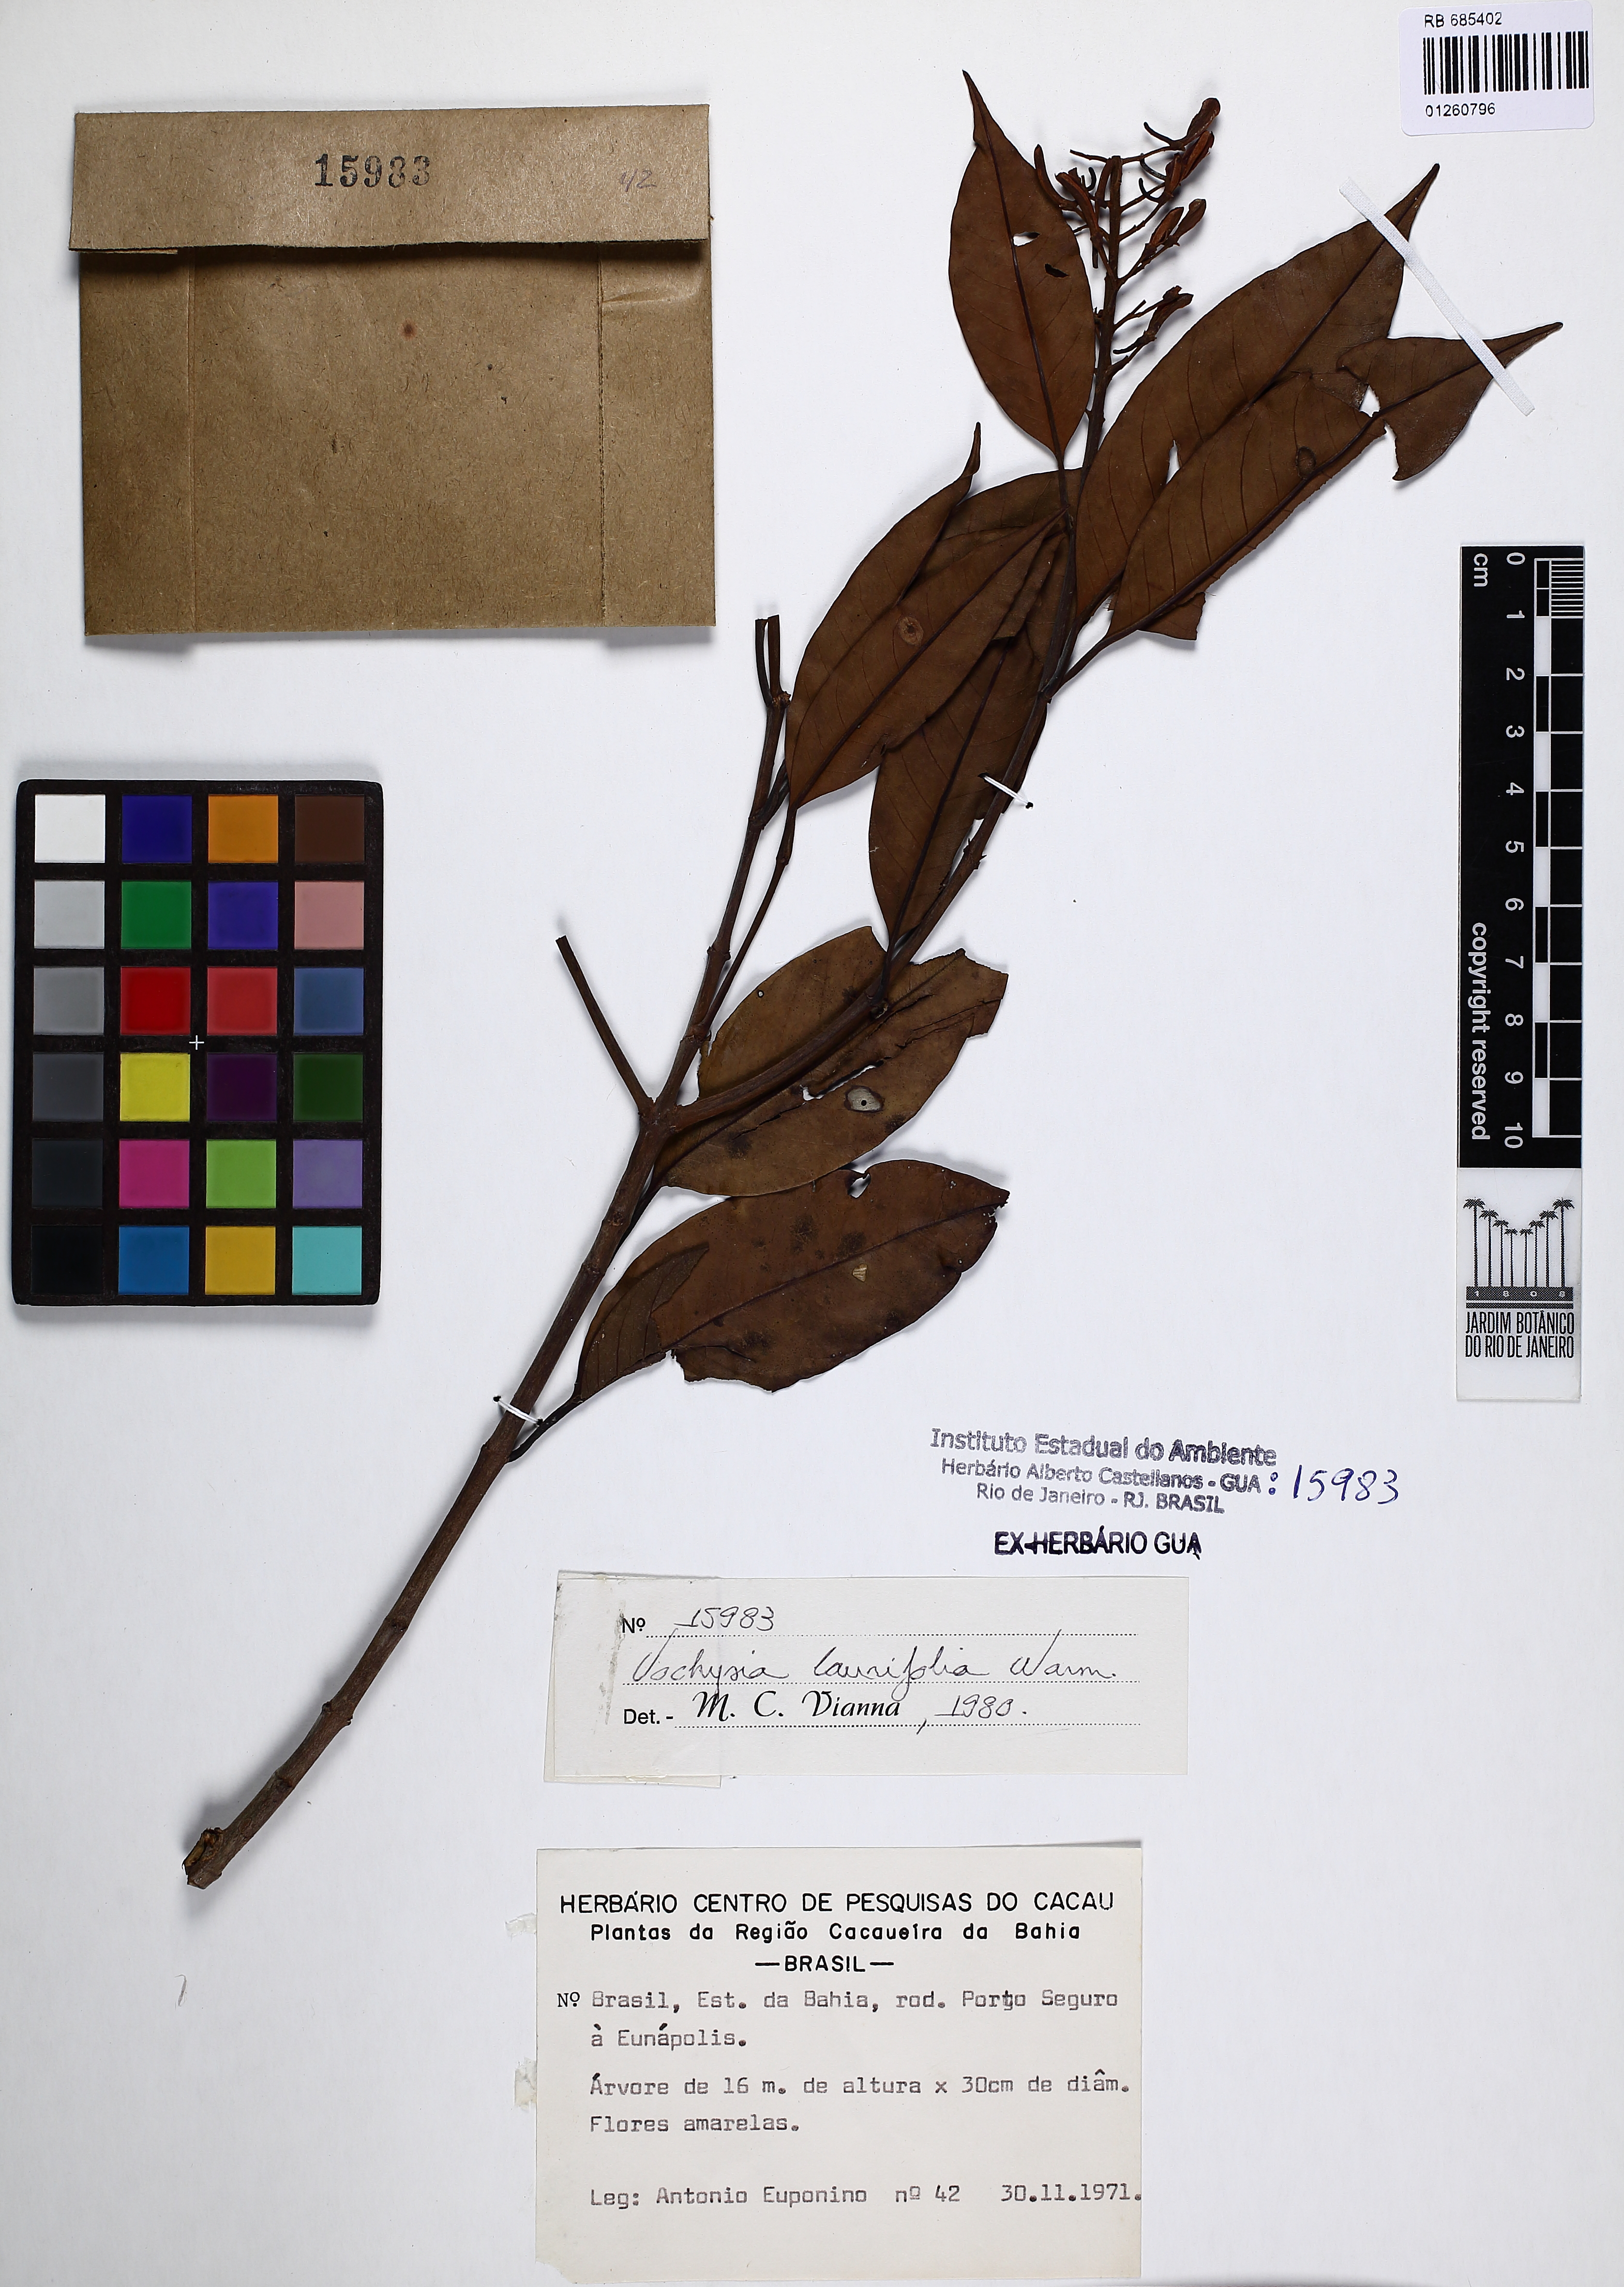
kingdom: Plantae
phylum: Tracheophyta
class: Magnoliopsida
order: Myrtales
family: Vochysiaceae
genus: Vochysia
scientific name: Vochysia laurifolia
